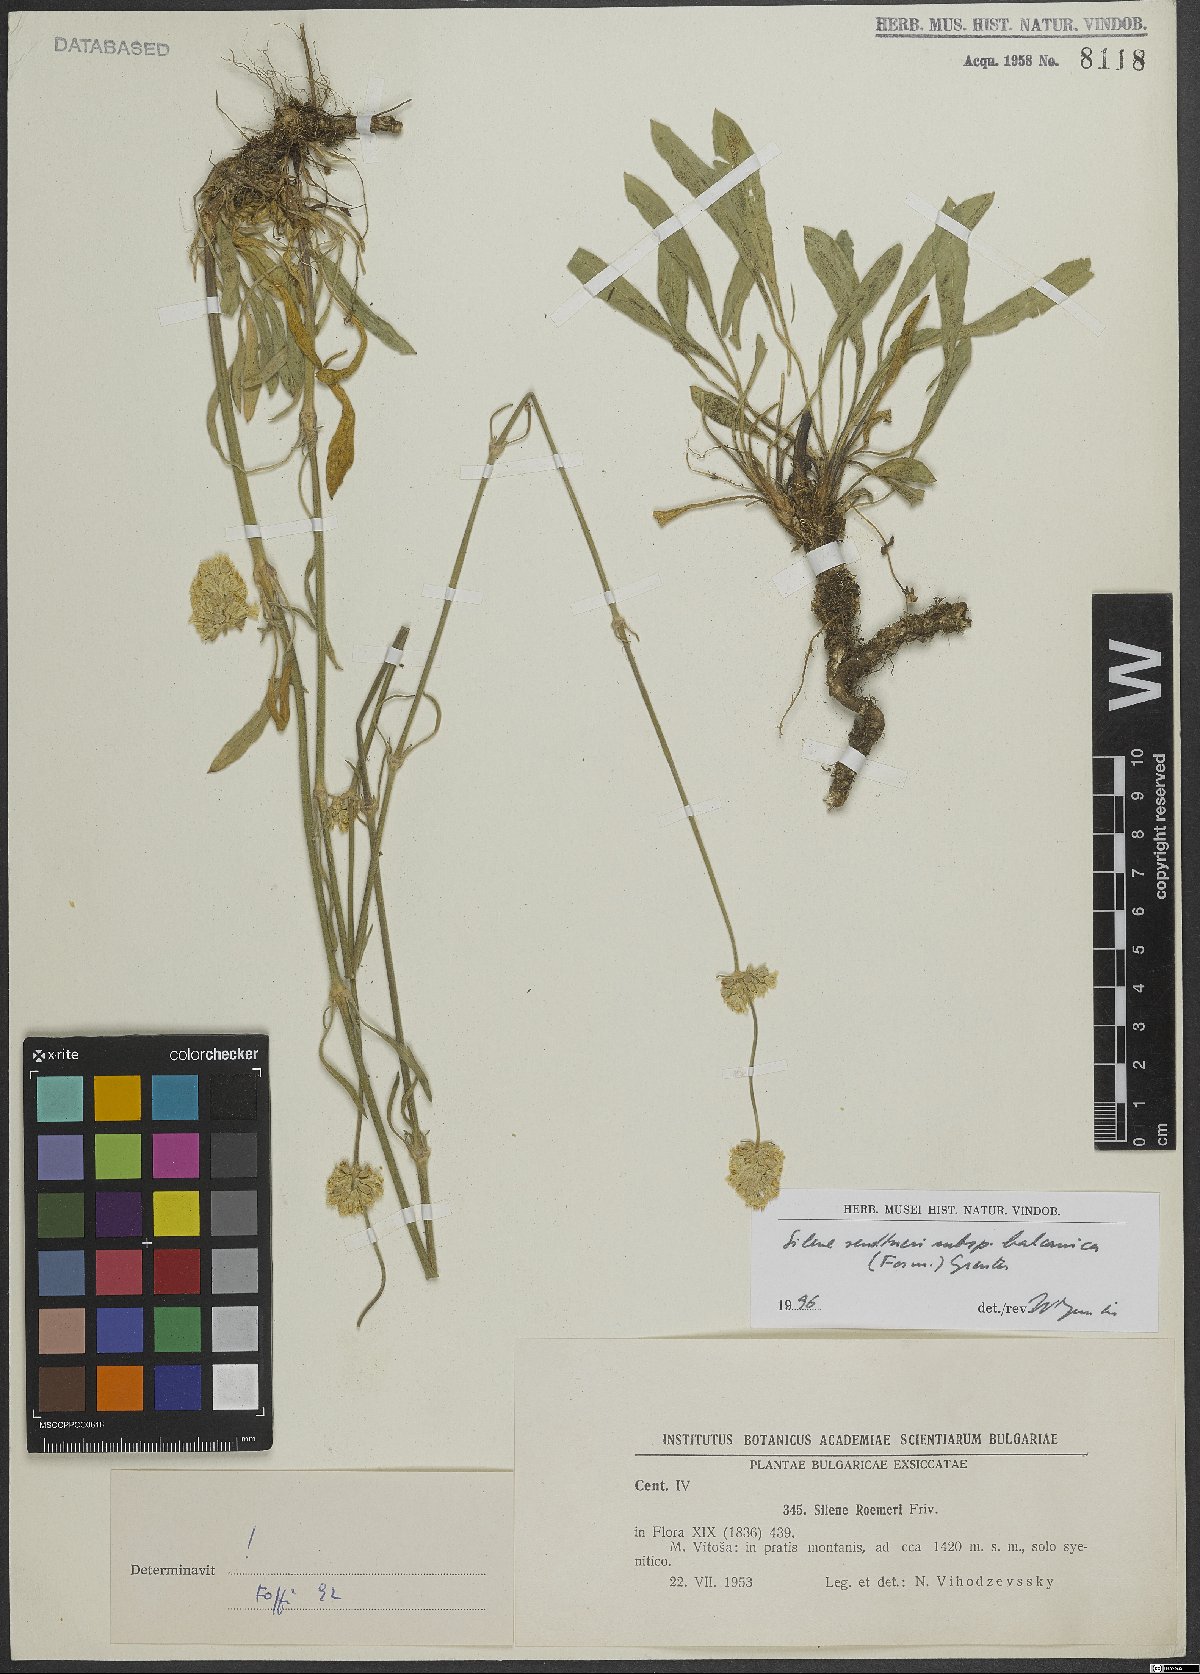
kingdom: Plantae
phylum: Tracheophyta
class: Magnoliopsida
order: Caryophyllales
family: Caryophyllaceae
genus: Silene
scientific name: Silene sendtneri
